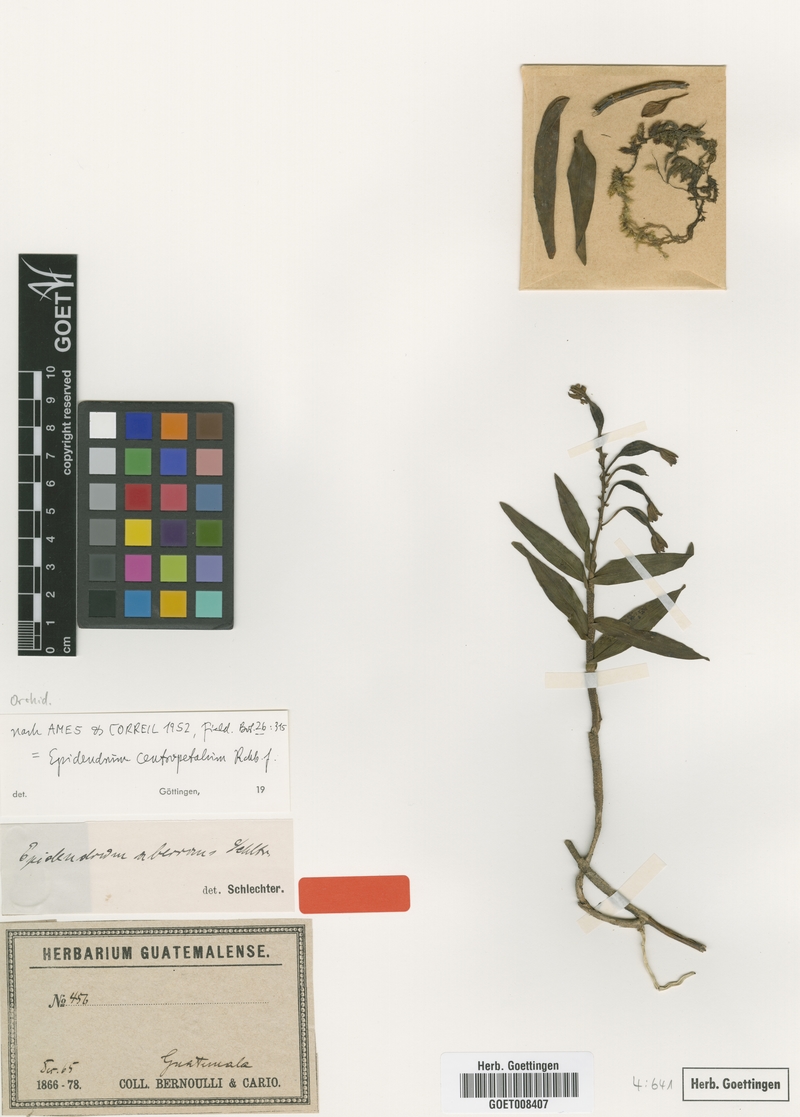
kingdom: Plantae
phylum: Tracheophyta
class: Liliopsida
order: Asparagales
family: Orchidaceae
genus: Epidendrum
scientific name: Epidendrum centropetalum
